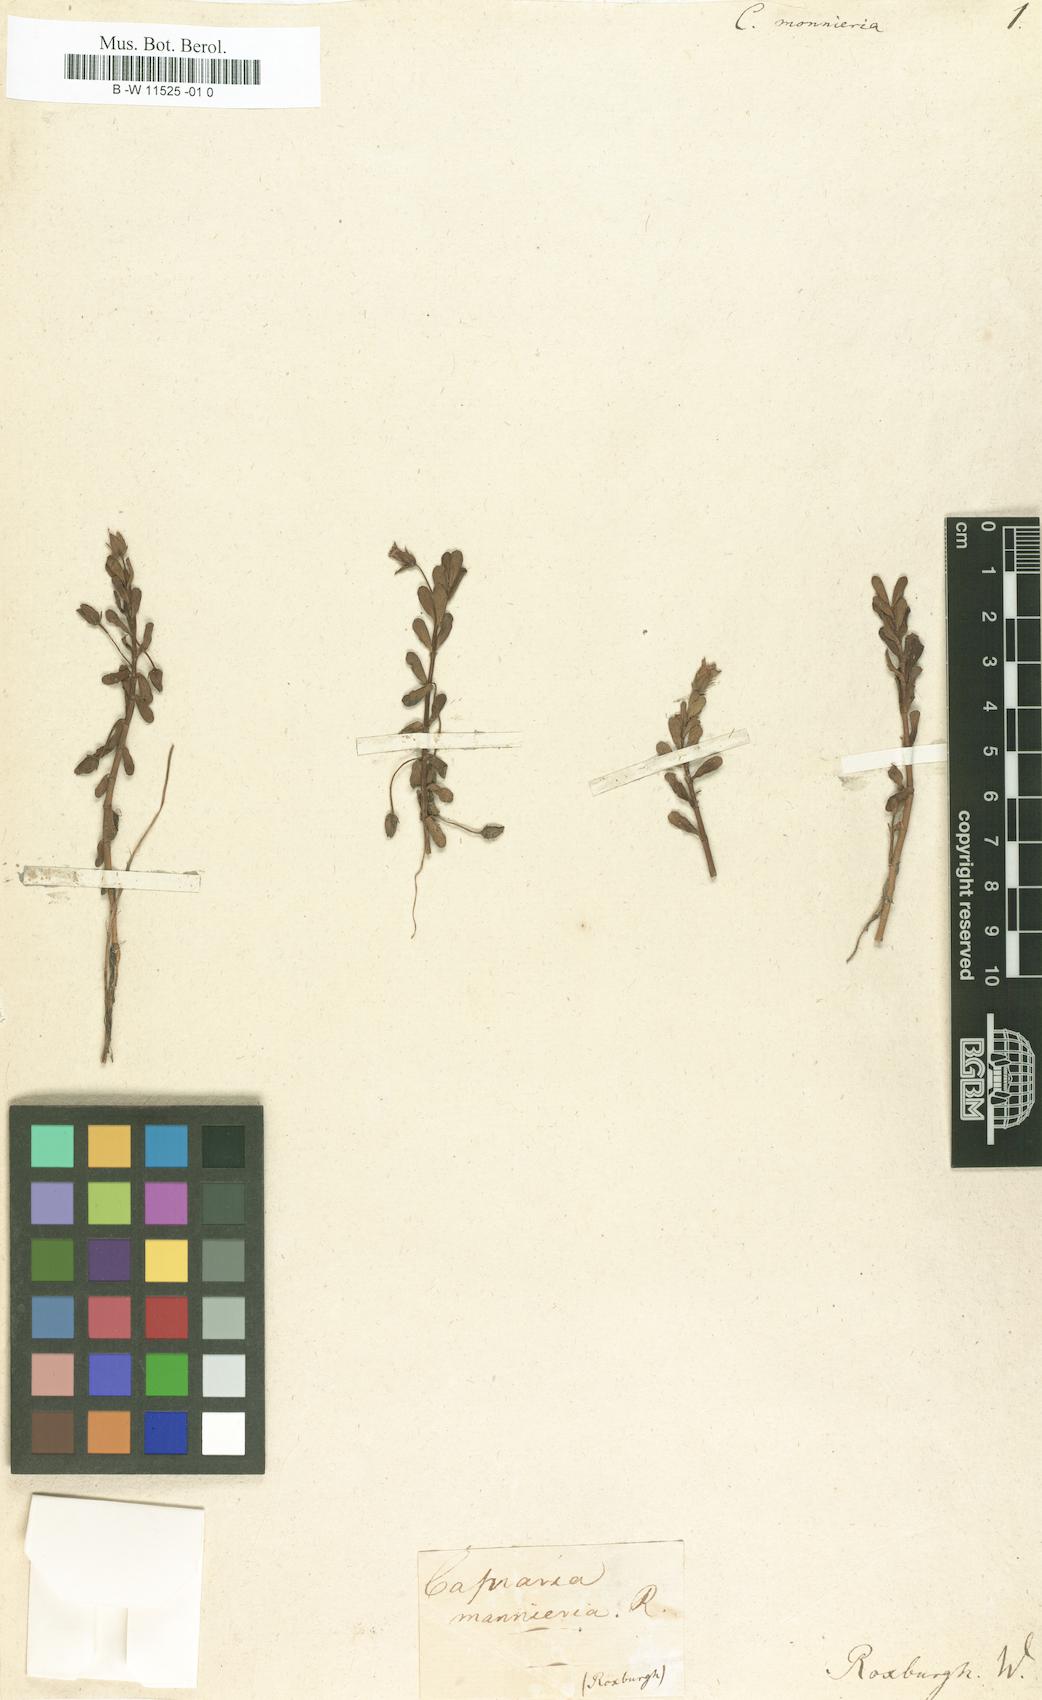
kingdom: Plantae
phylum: Tracheophyta
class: Magnoliopsida
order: Lamiales
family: Plantaginaceae
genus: Bacopa
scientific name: Bacopa monnieri
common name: Indian-pennywort
